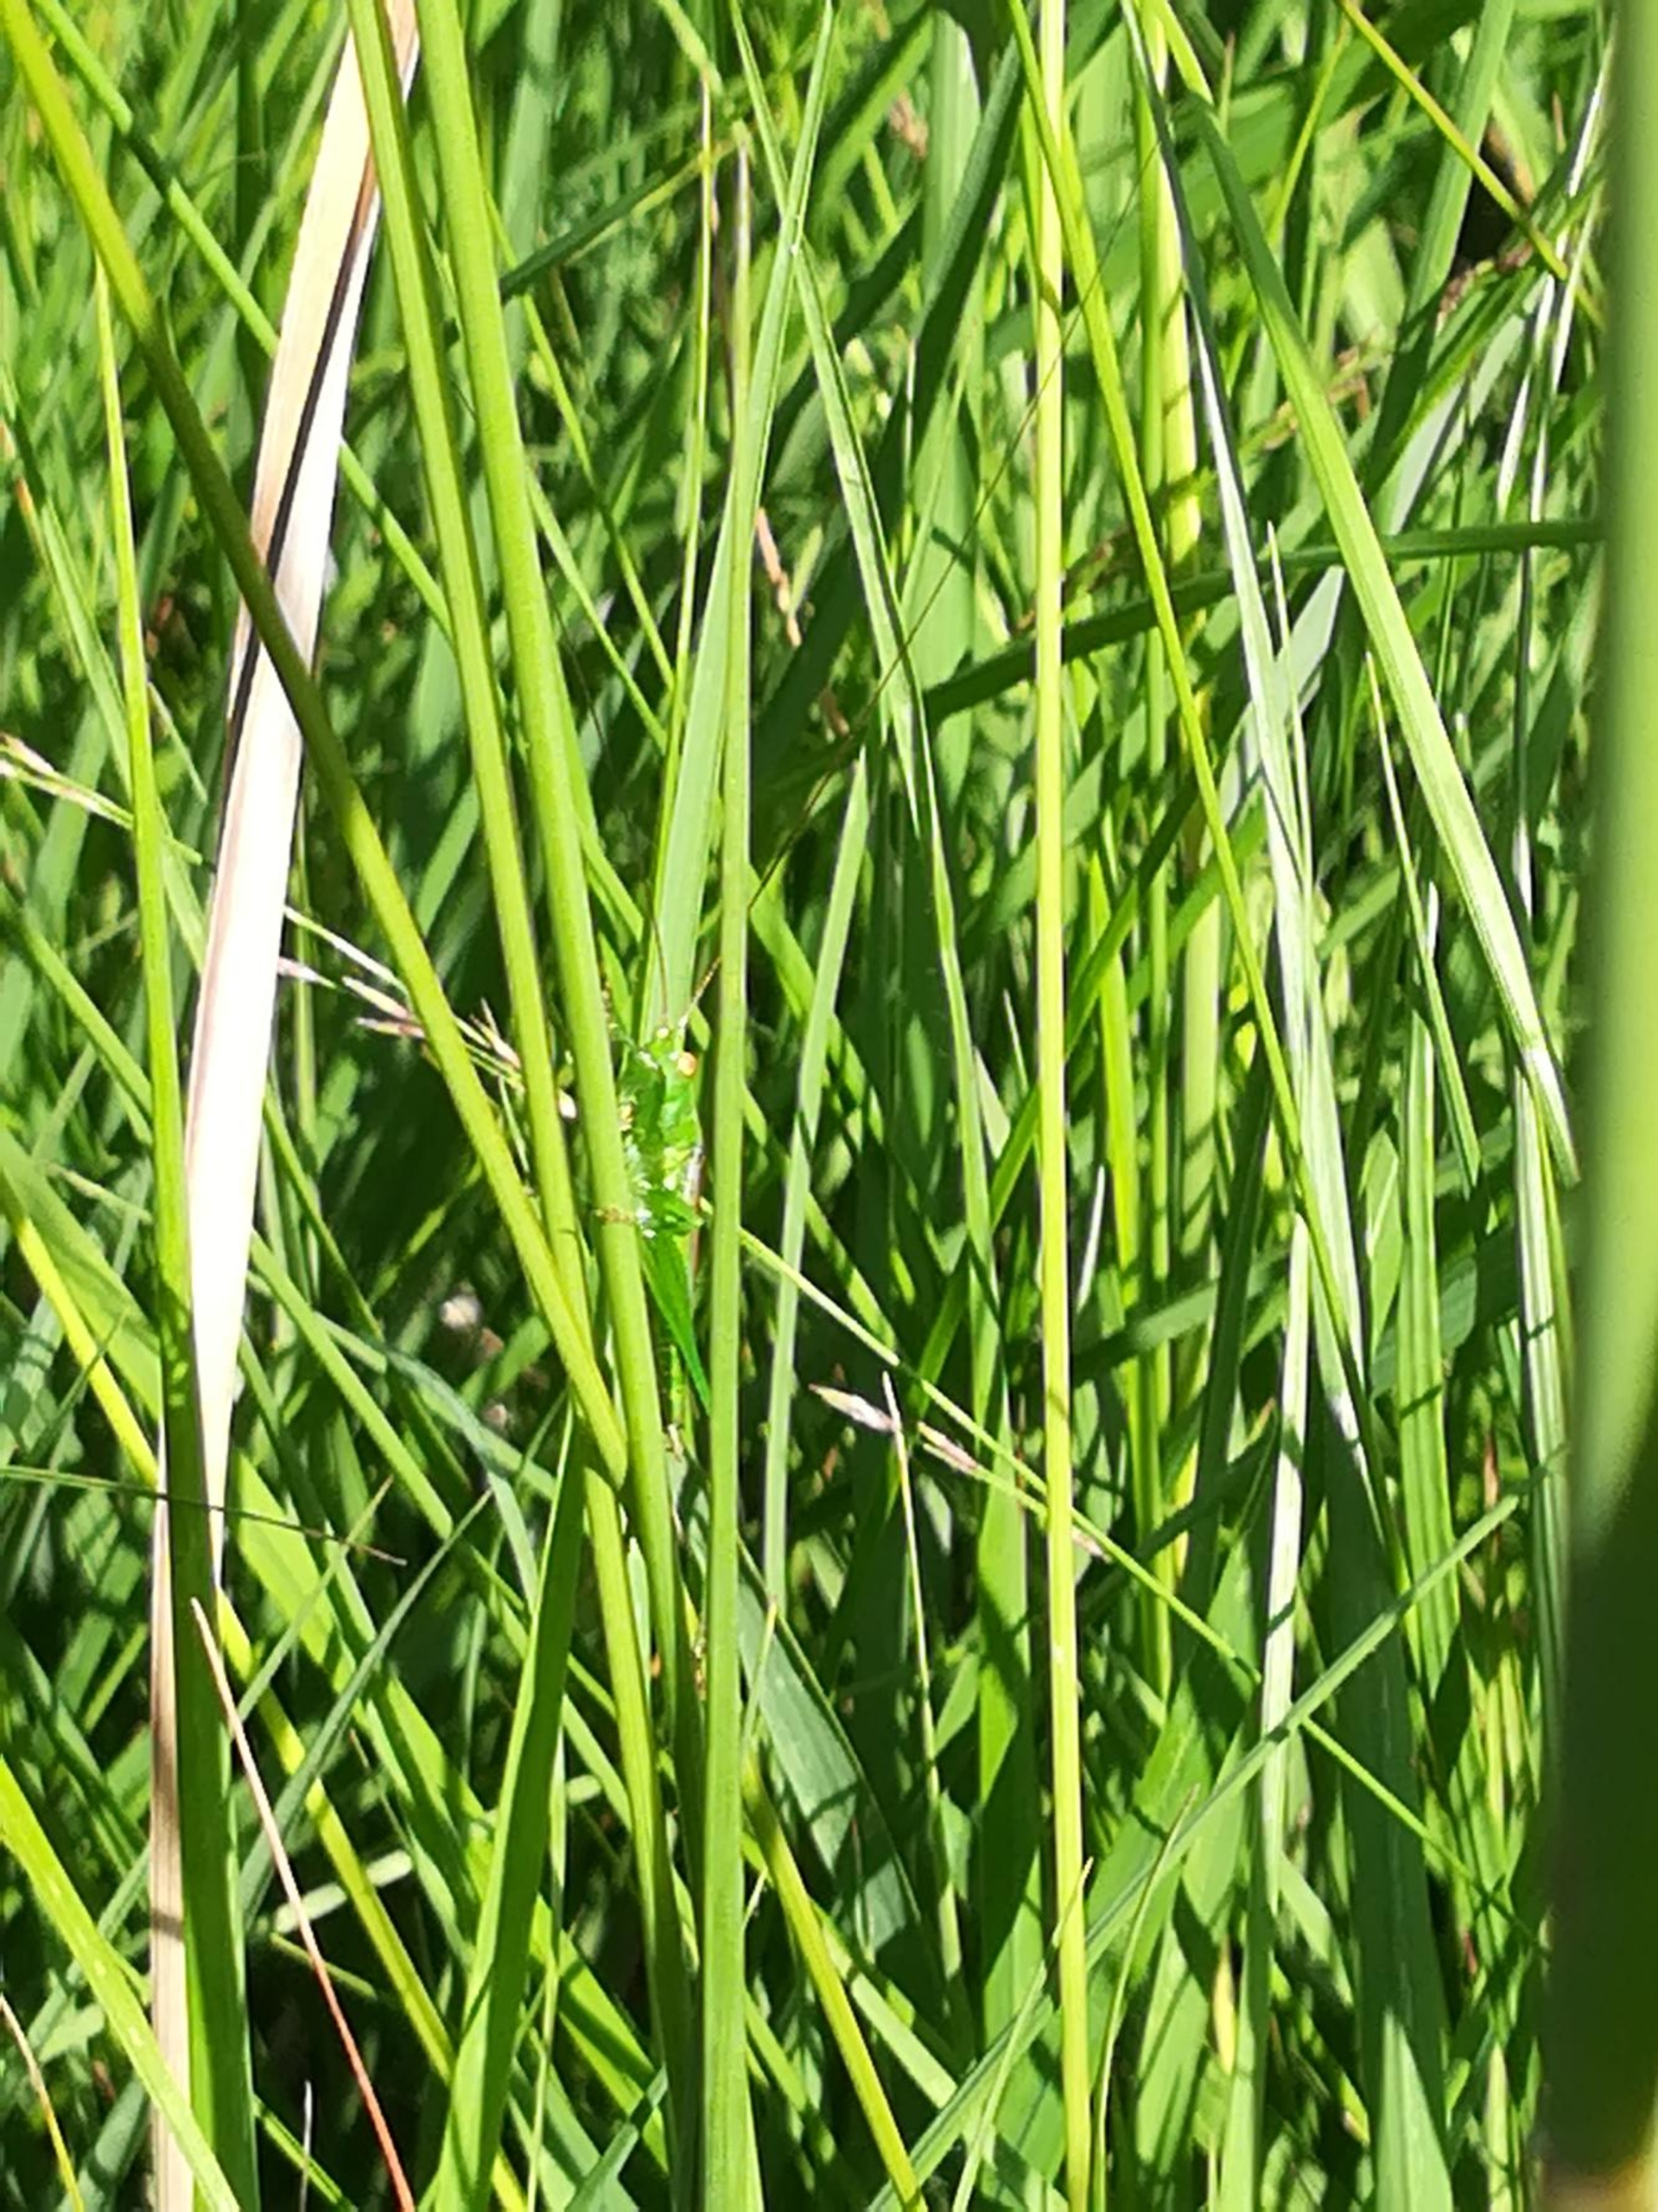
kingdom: Animalia
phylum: Arthropoda
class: Insecta
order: Orthoptera
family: Tettigoniidae
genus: Conocephalus
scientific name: Conocephalus dorsalis
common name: Sivgræshoppe
